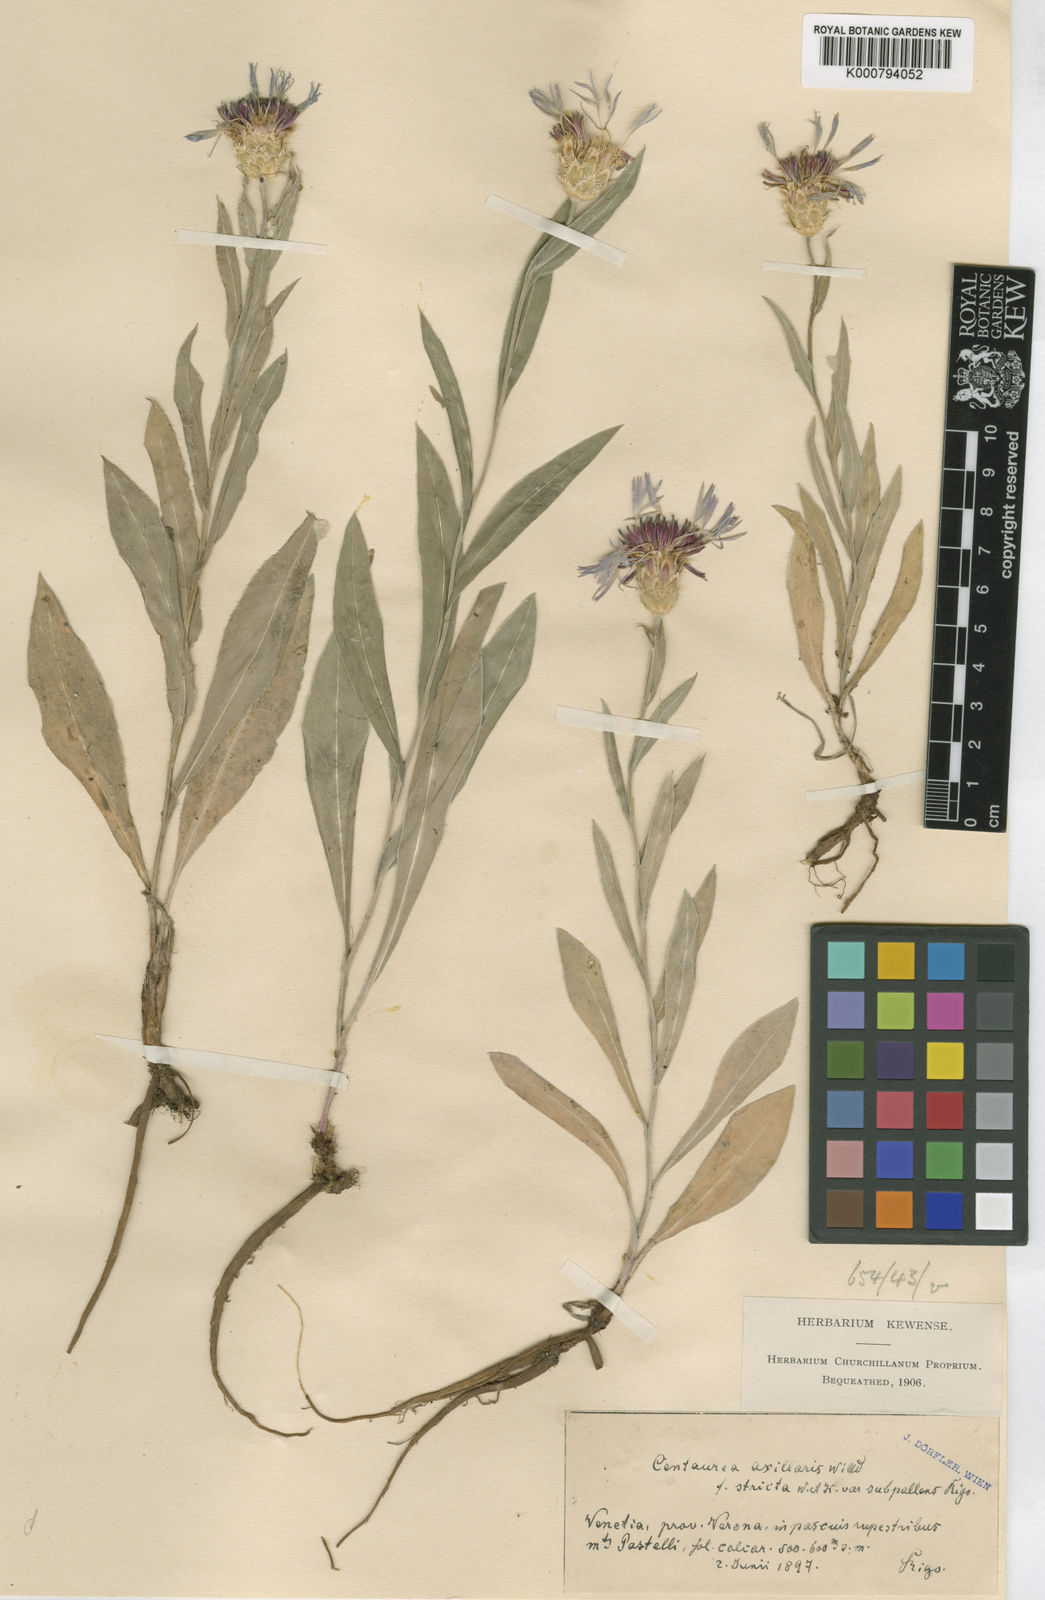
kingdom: Plantae
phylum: Tracheophyta
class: Magnoliopsida
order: Asterales
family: Asteraceae
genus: Centaurea
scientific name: Centaurea triumfettii
